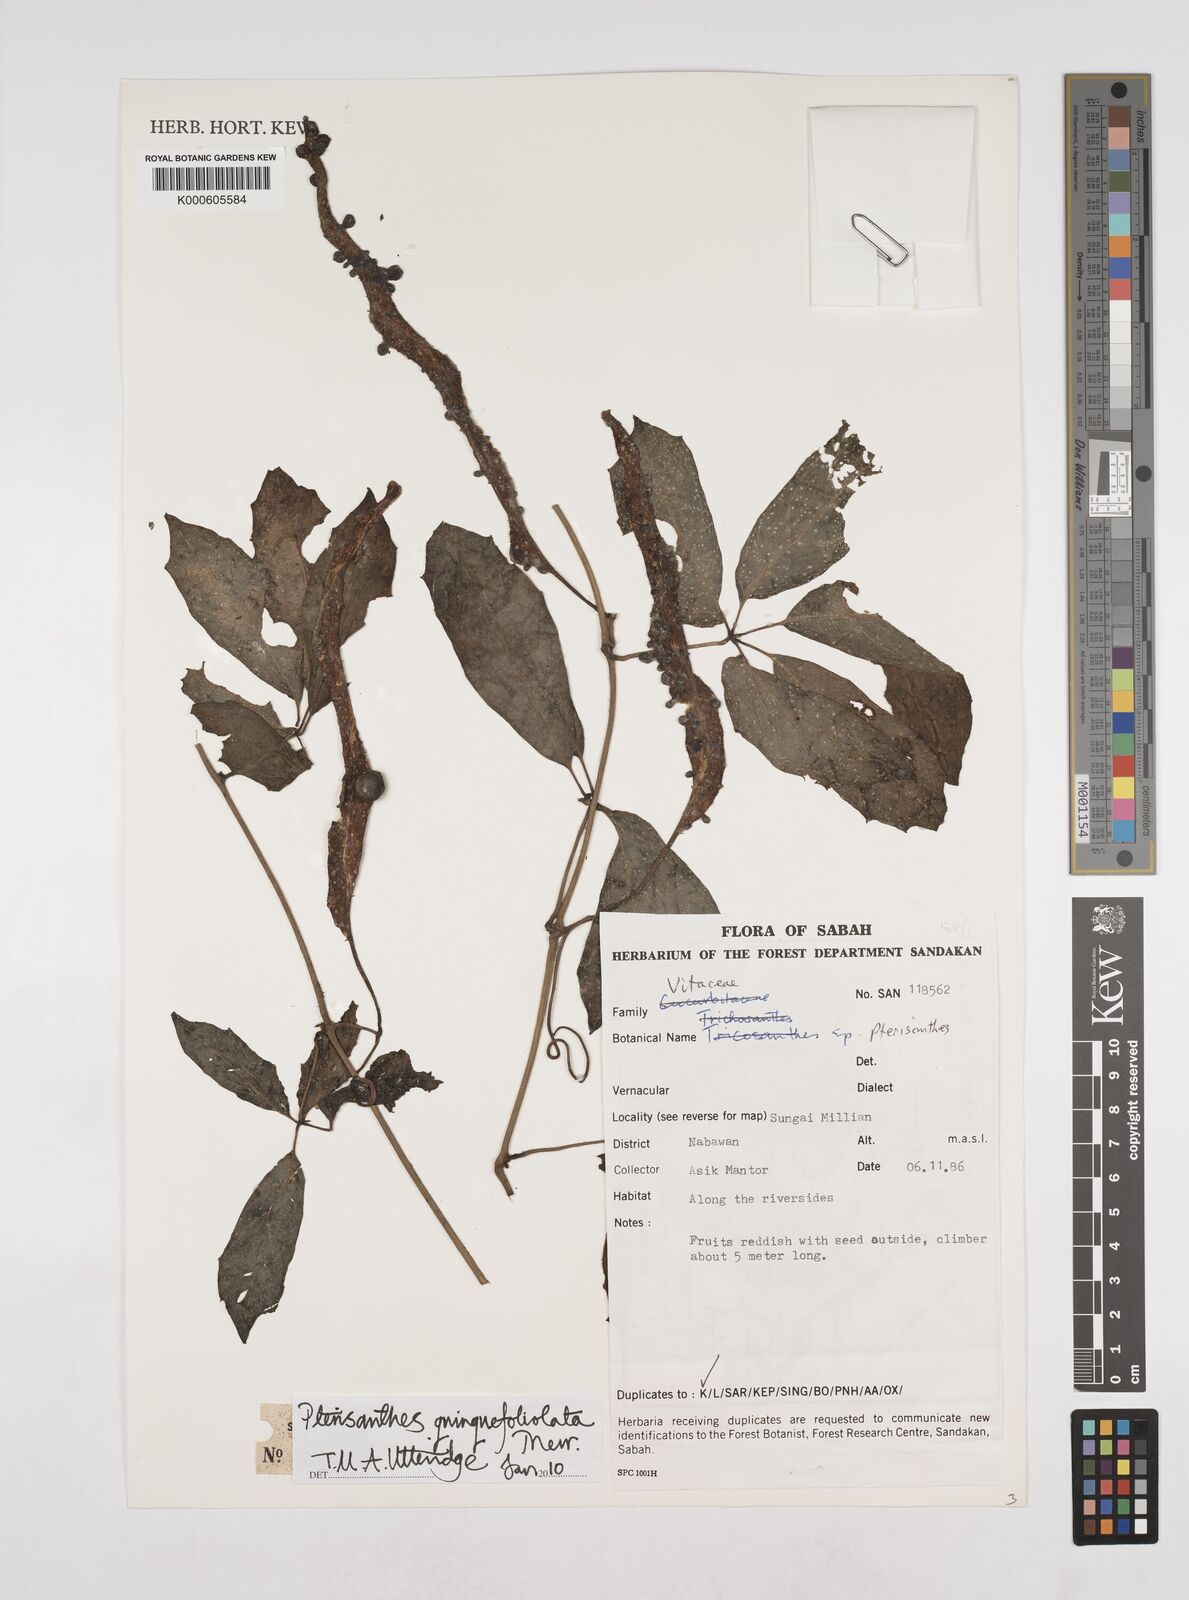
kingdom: Plantae
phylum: Tracheophyta
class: Magnoliopsida
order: Vitales
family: Vitaceae
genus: Pterisanthes
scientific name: Pterisanthes quinquefoliolata
